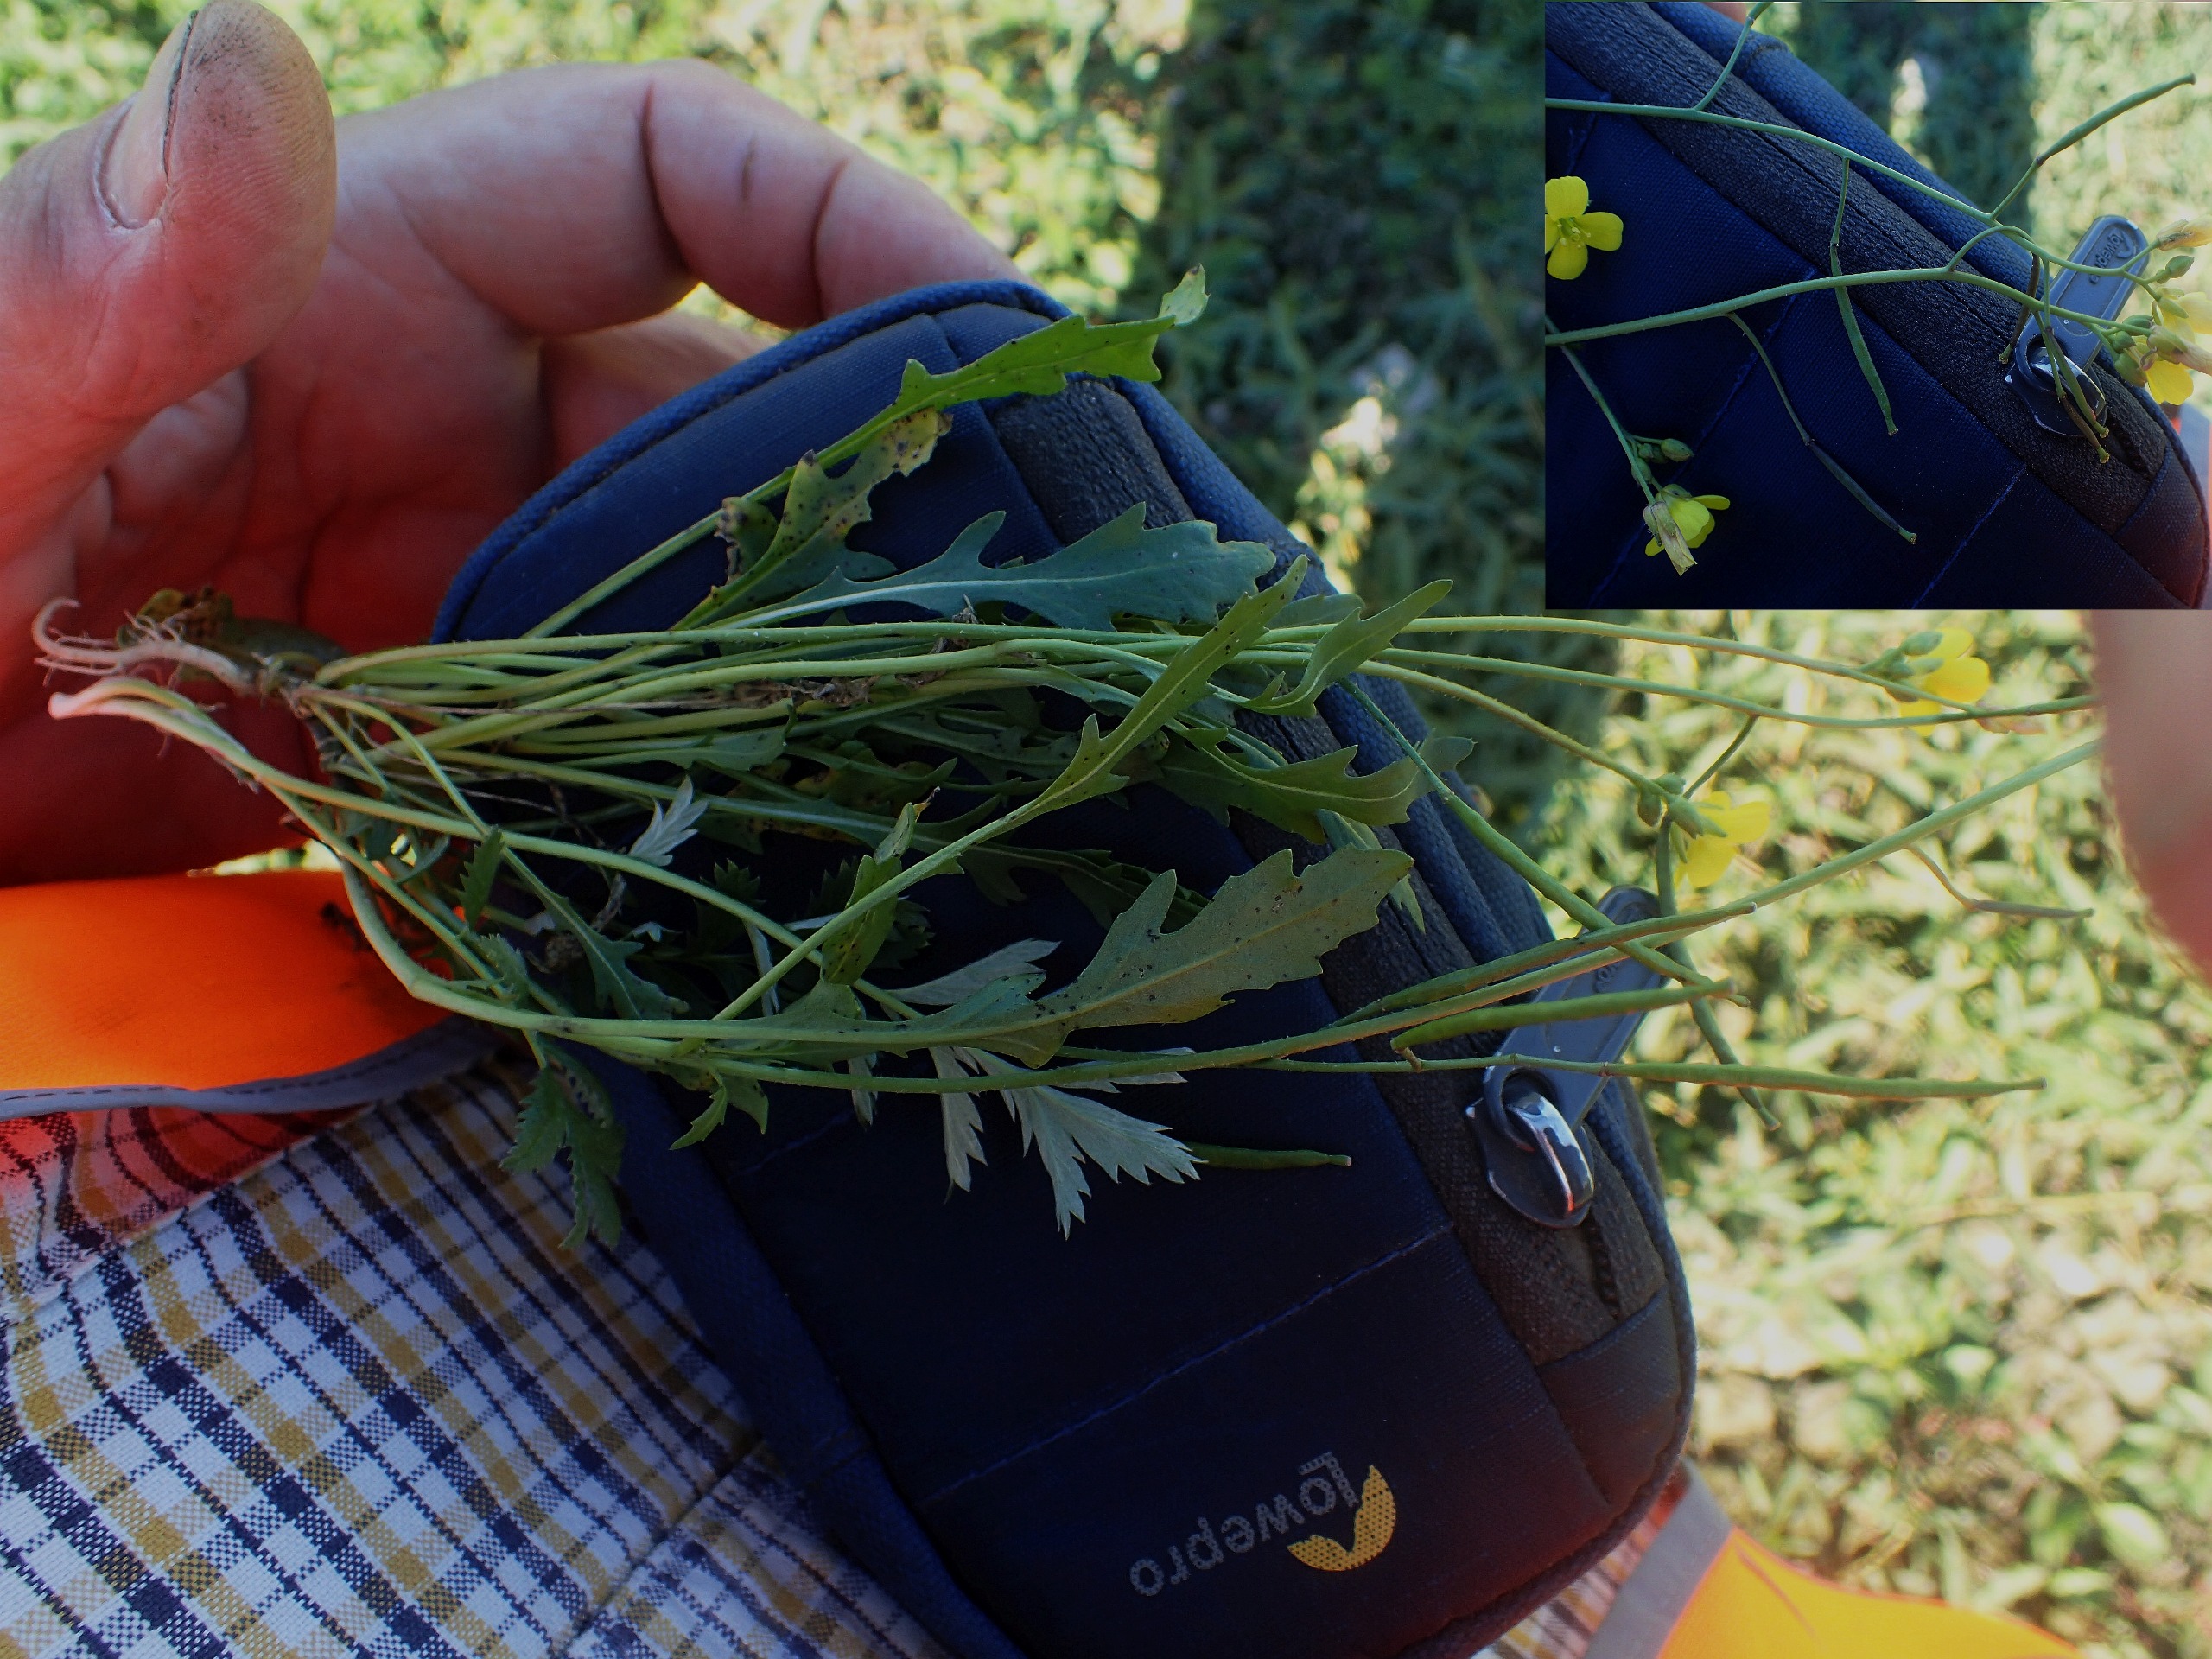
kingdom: Plantae
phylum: Tracheophyta
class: Magnoliopsida
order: Brassicales
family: Brassicaceae
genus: Diplotaxis
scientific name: Diplotaxis muralis
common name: Mursennep
